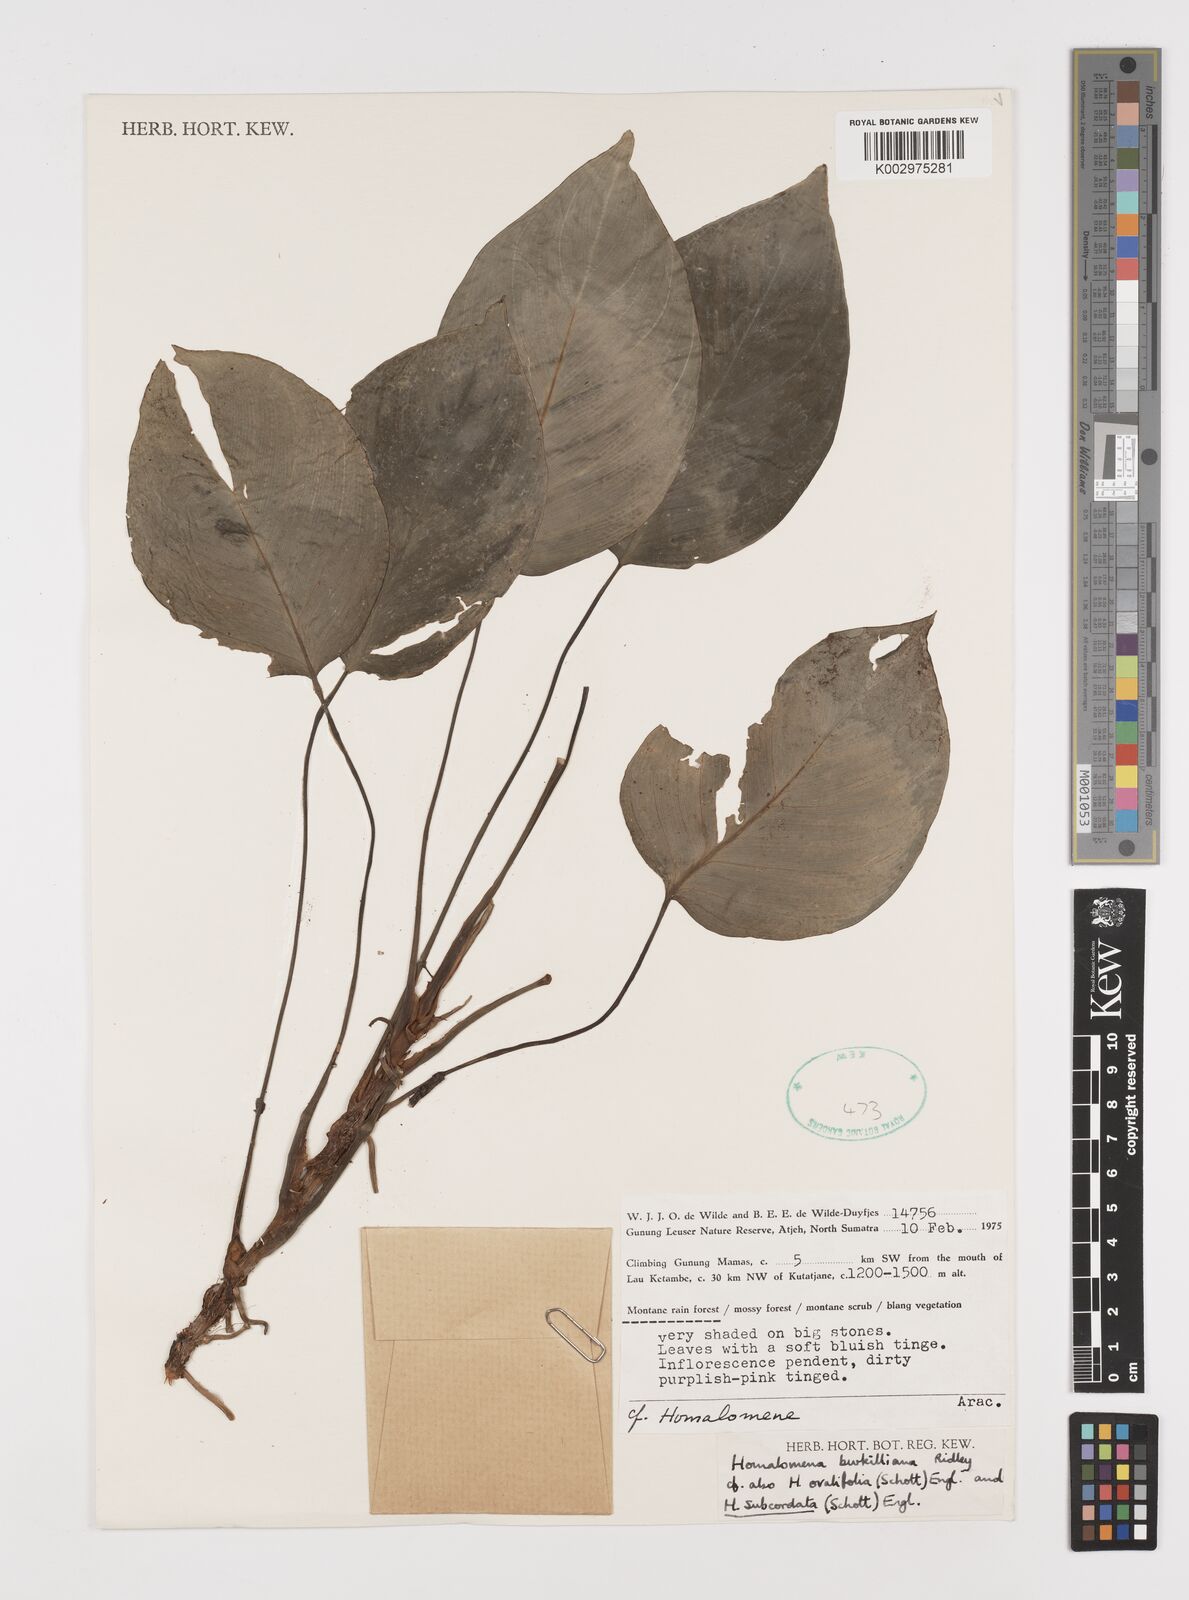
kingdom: Plantae
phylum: Tracheophyta
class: Liliopsida
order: Alismatales
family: Araceae
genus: Homalomena
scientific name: Homalomena burkilliana
